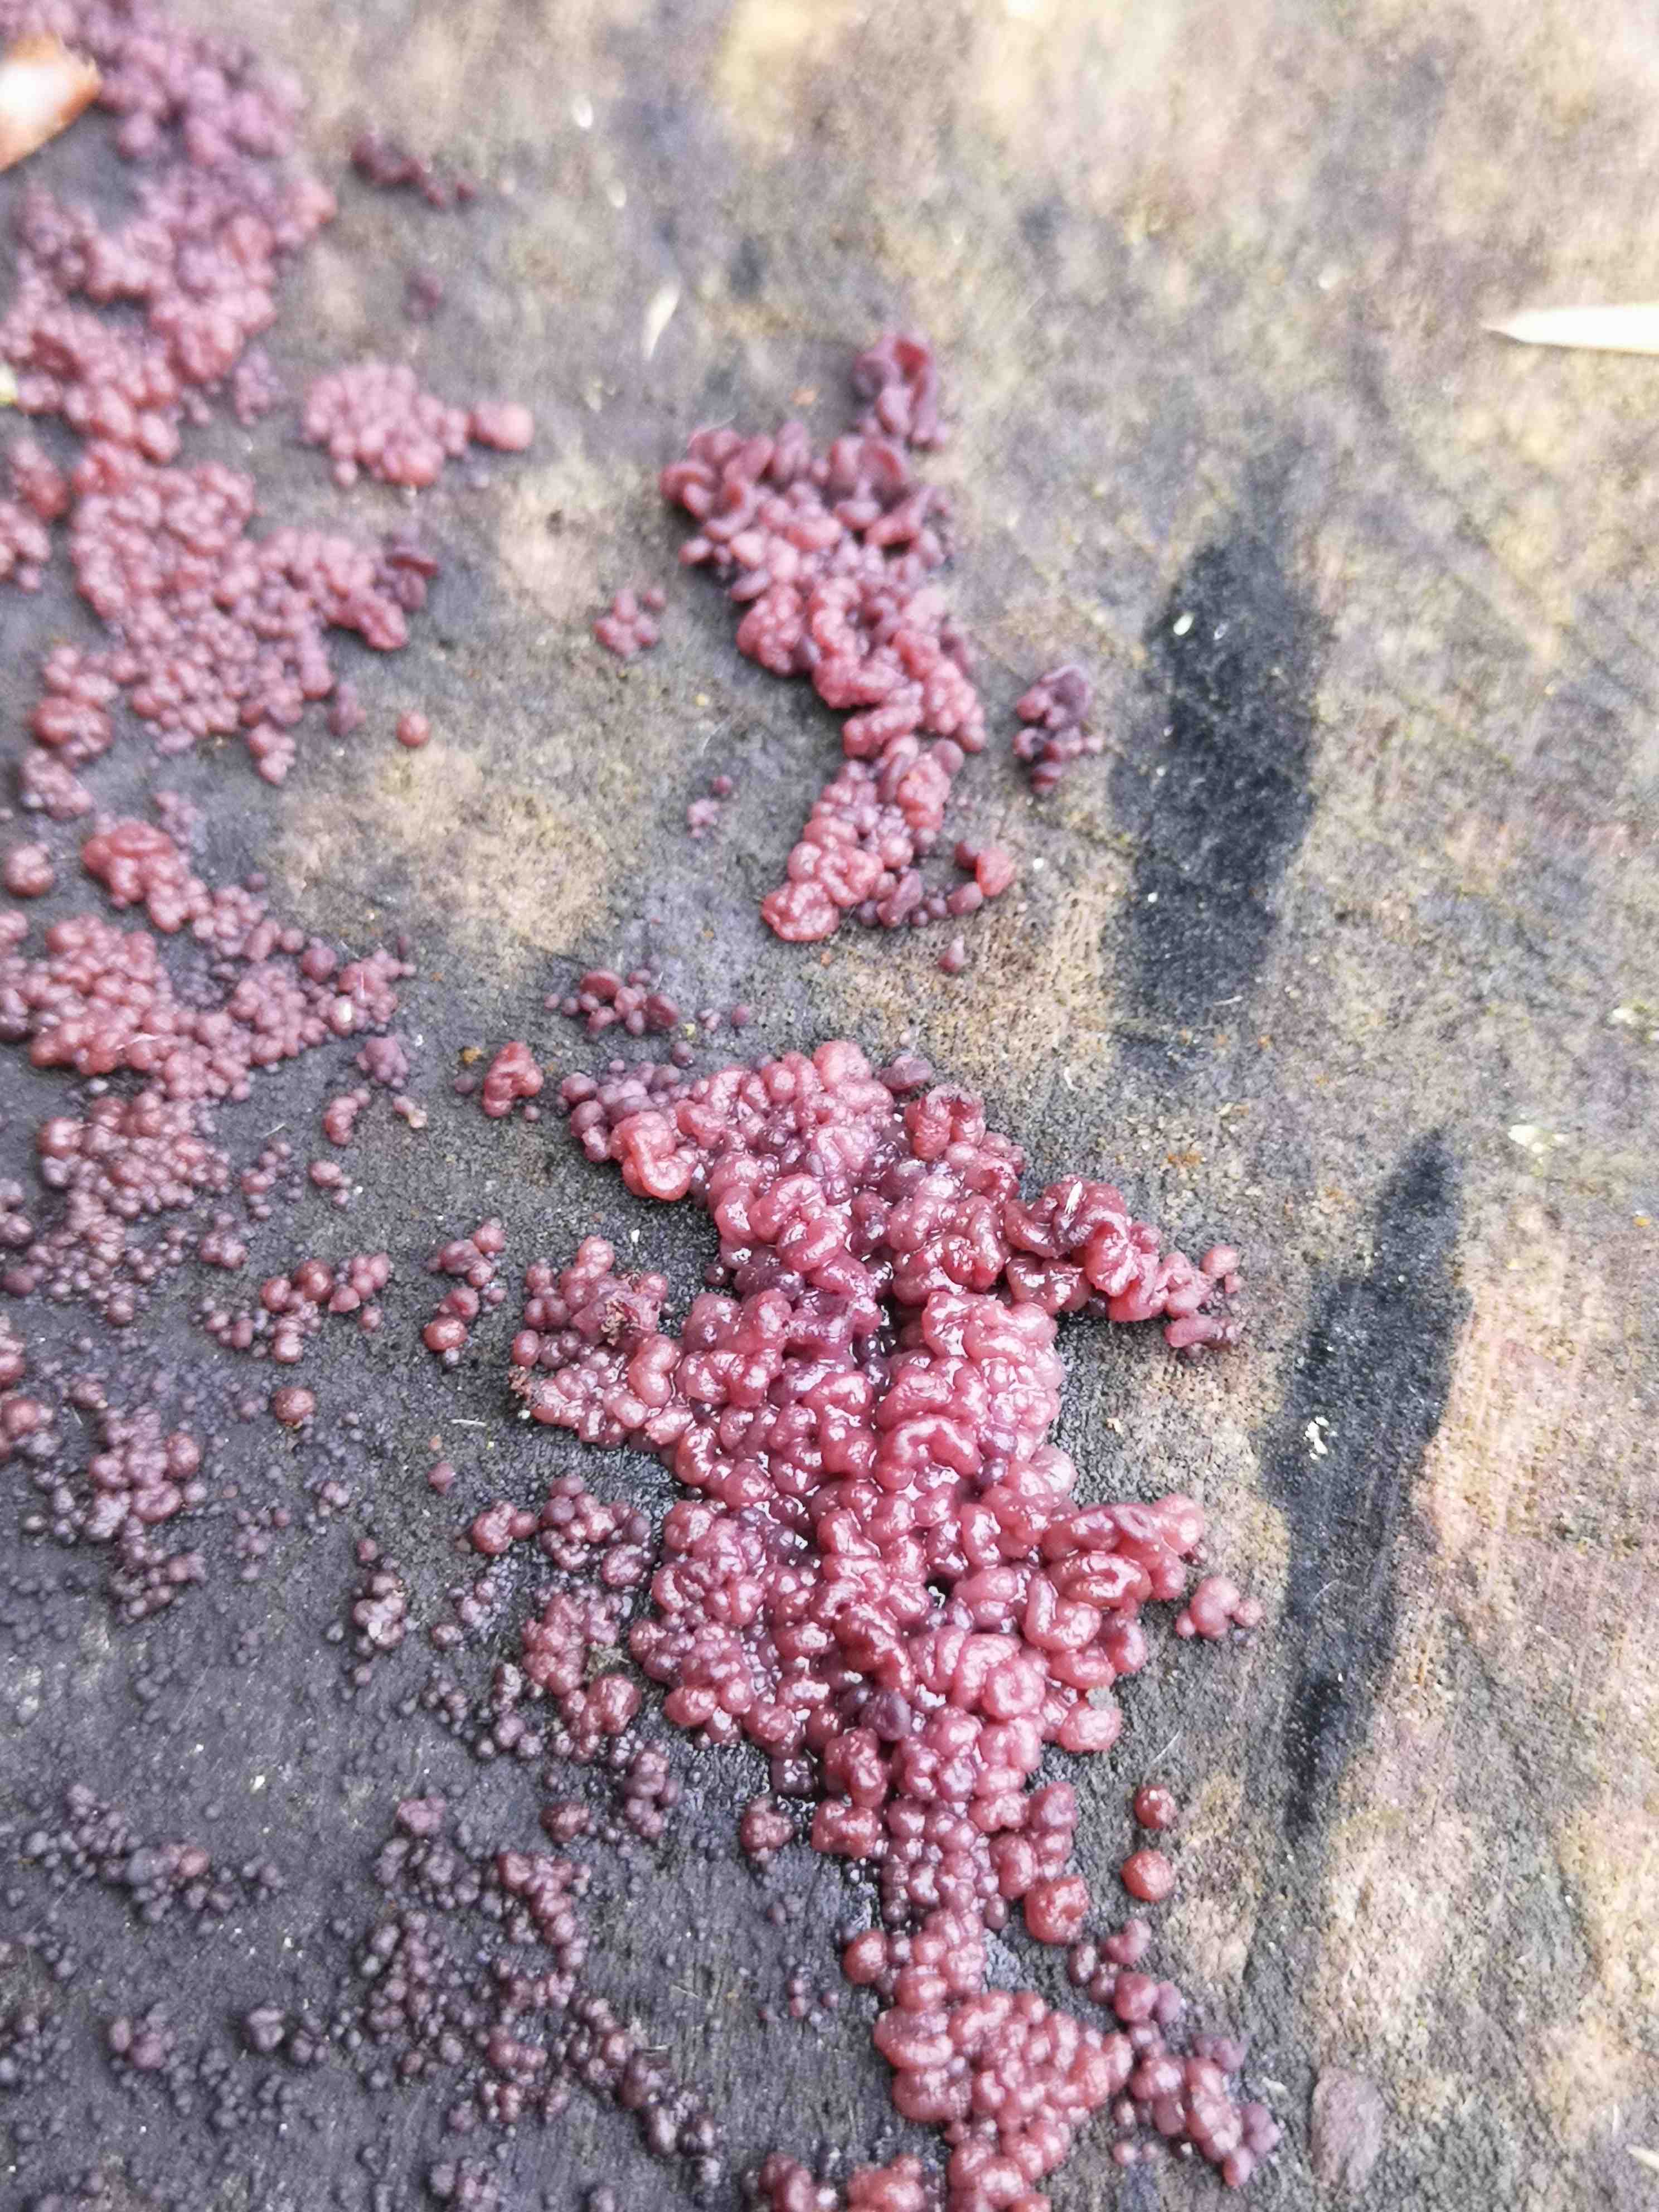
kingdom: Fungi
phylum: Ascomycota
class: Leotiomycetes
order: Helotiales
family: Gelatinodiscaceae
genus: Ascocoryne
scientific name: Ascocoryne sarcoides
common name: rødlilla sejskive
